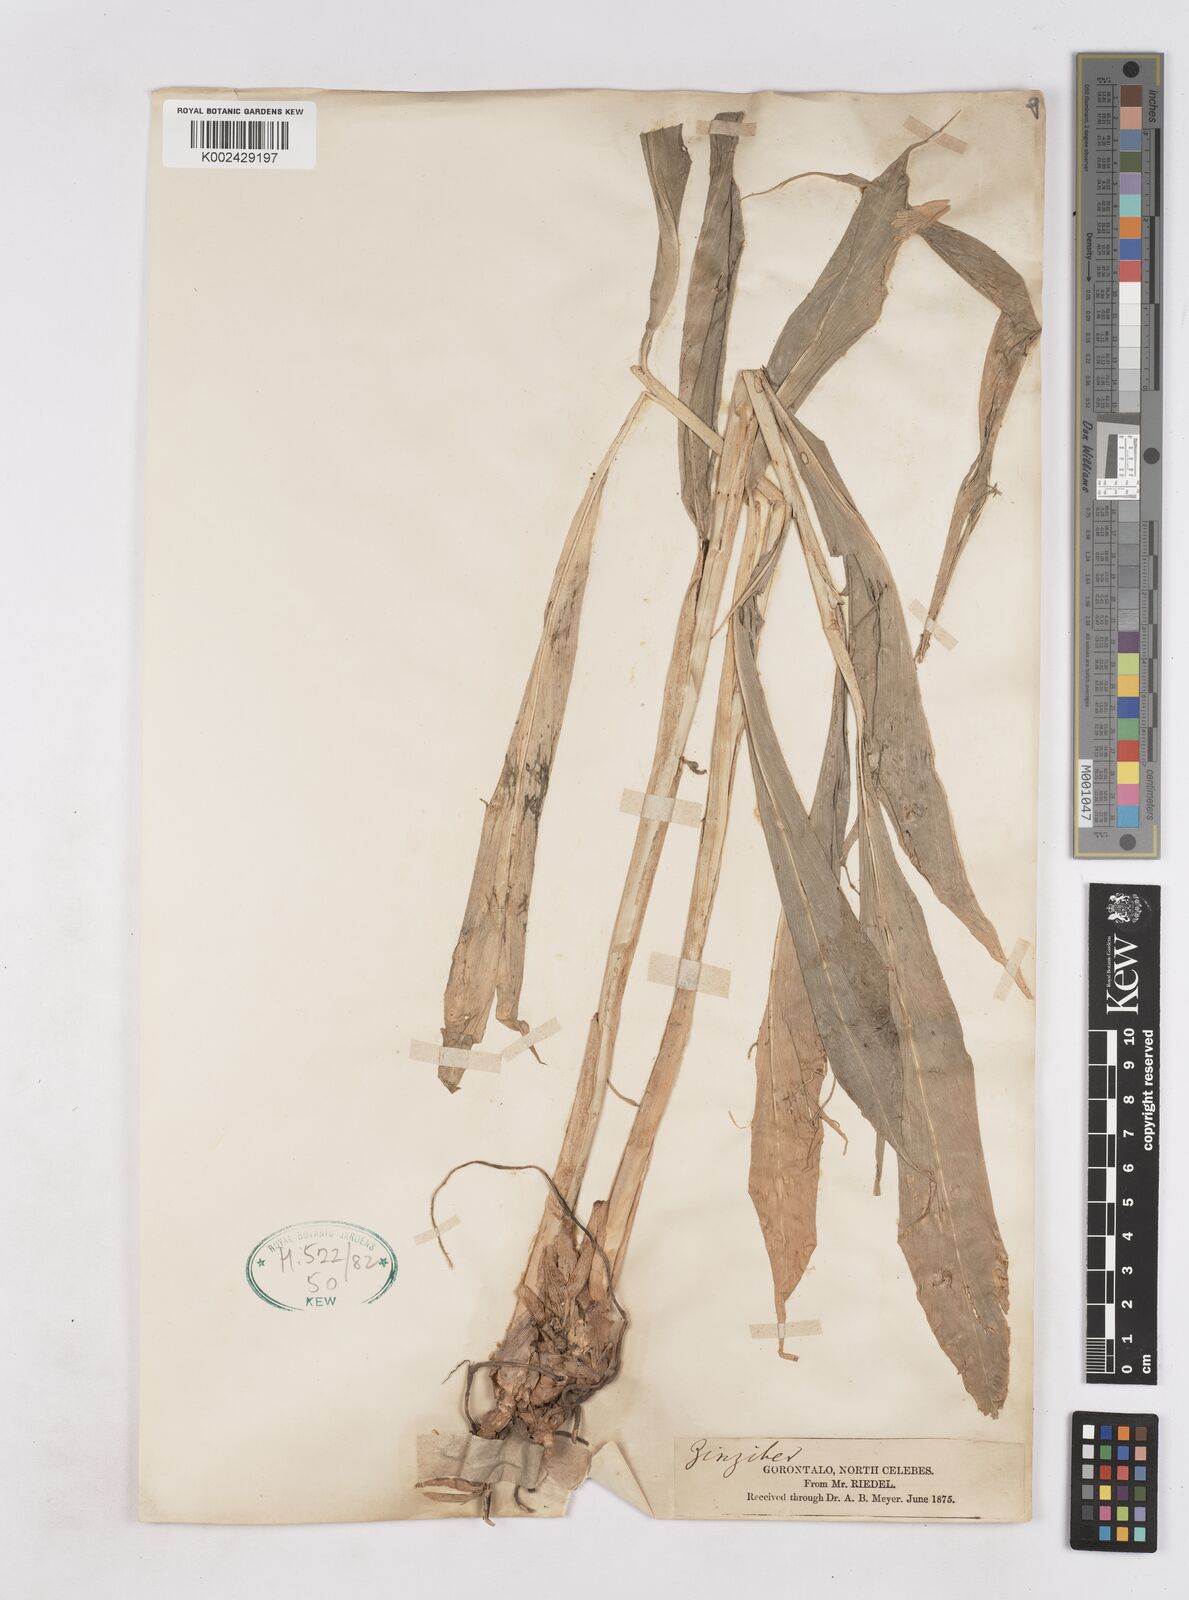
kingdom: Plantae
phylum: Tracheophyta
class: Liliopsida
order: Zingiberales
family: Zingiberaceae
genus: Zingiber
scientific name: Zingiber
